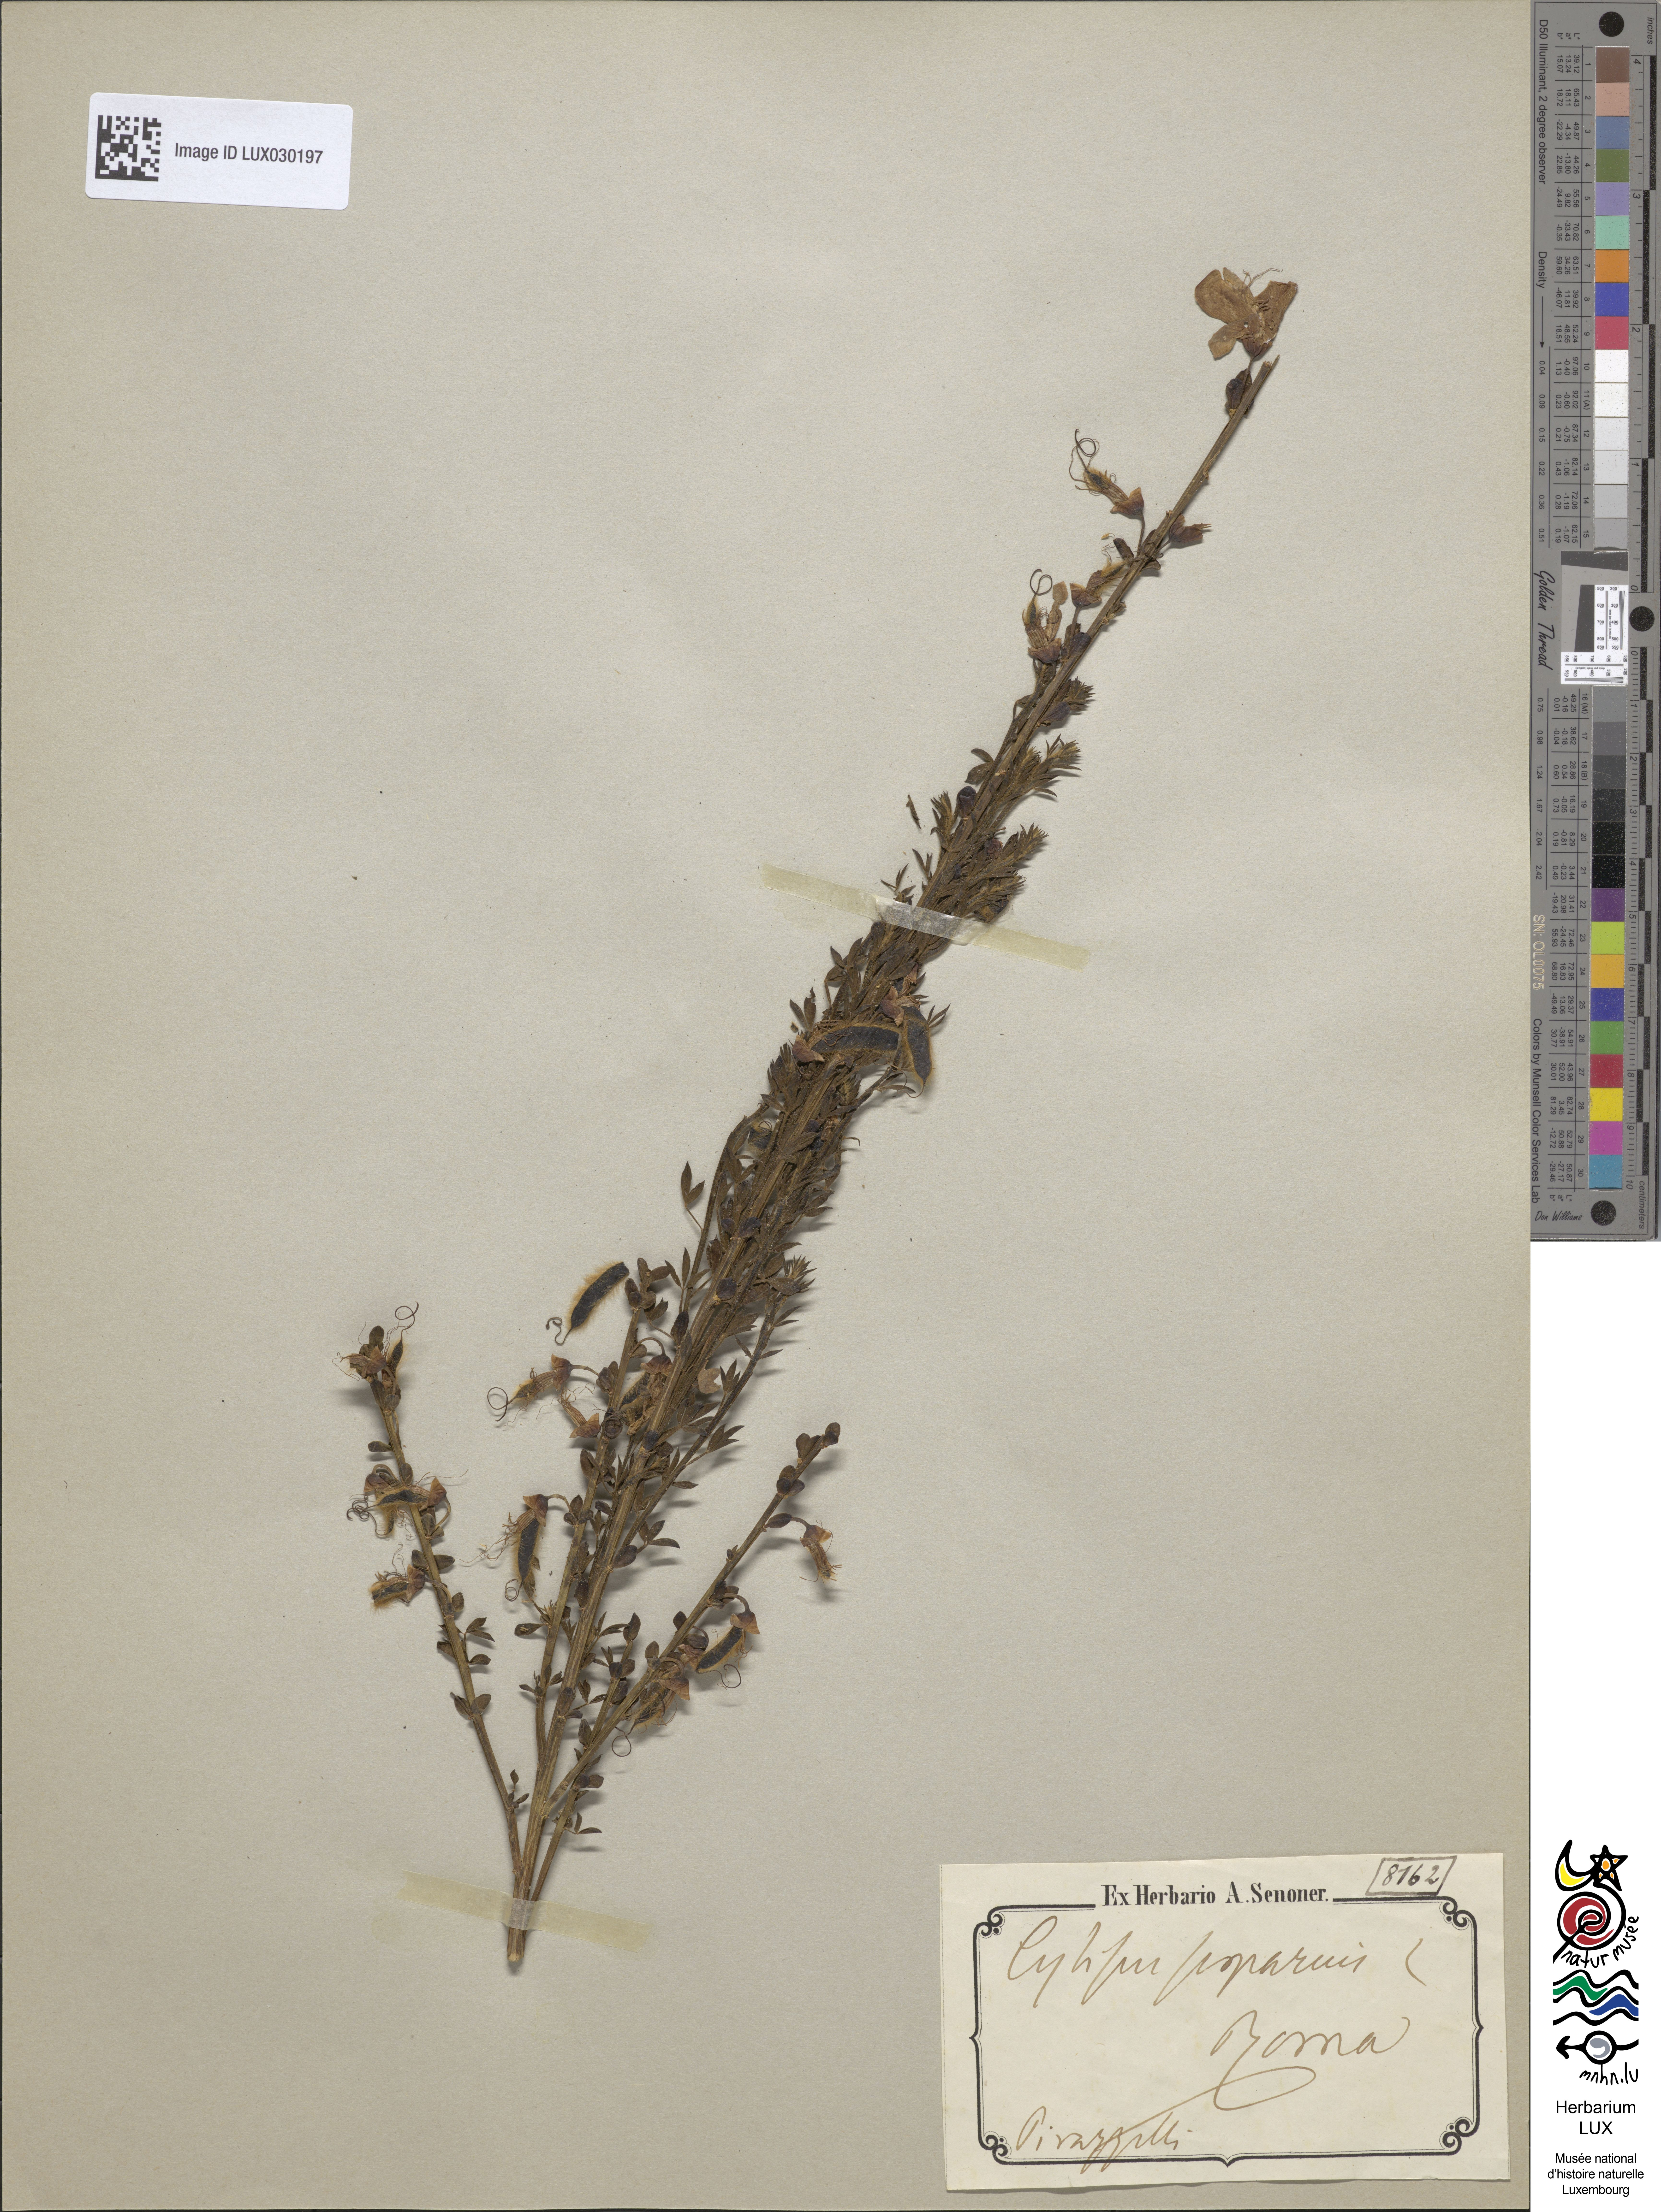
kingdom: Plantae
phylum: Tracheophyta
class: Magnoliopsida
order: Fabales
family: Fabaceae
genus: Cytisus
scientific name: Cytisus scoparius
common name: Scotch broom
